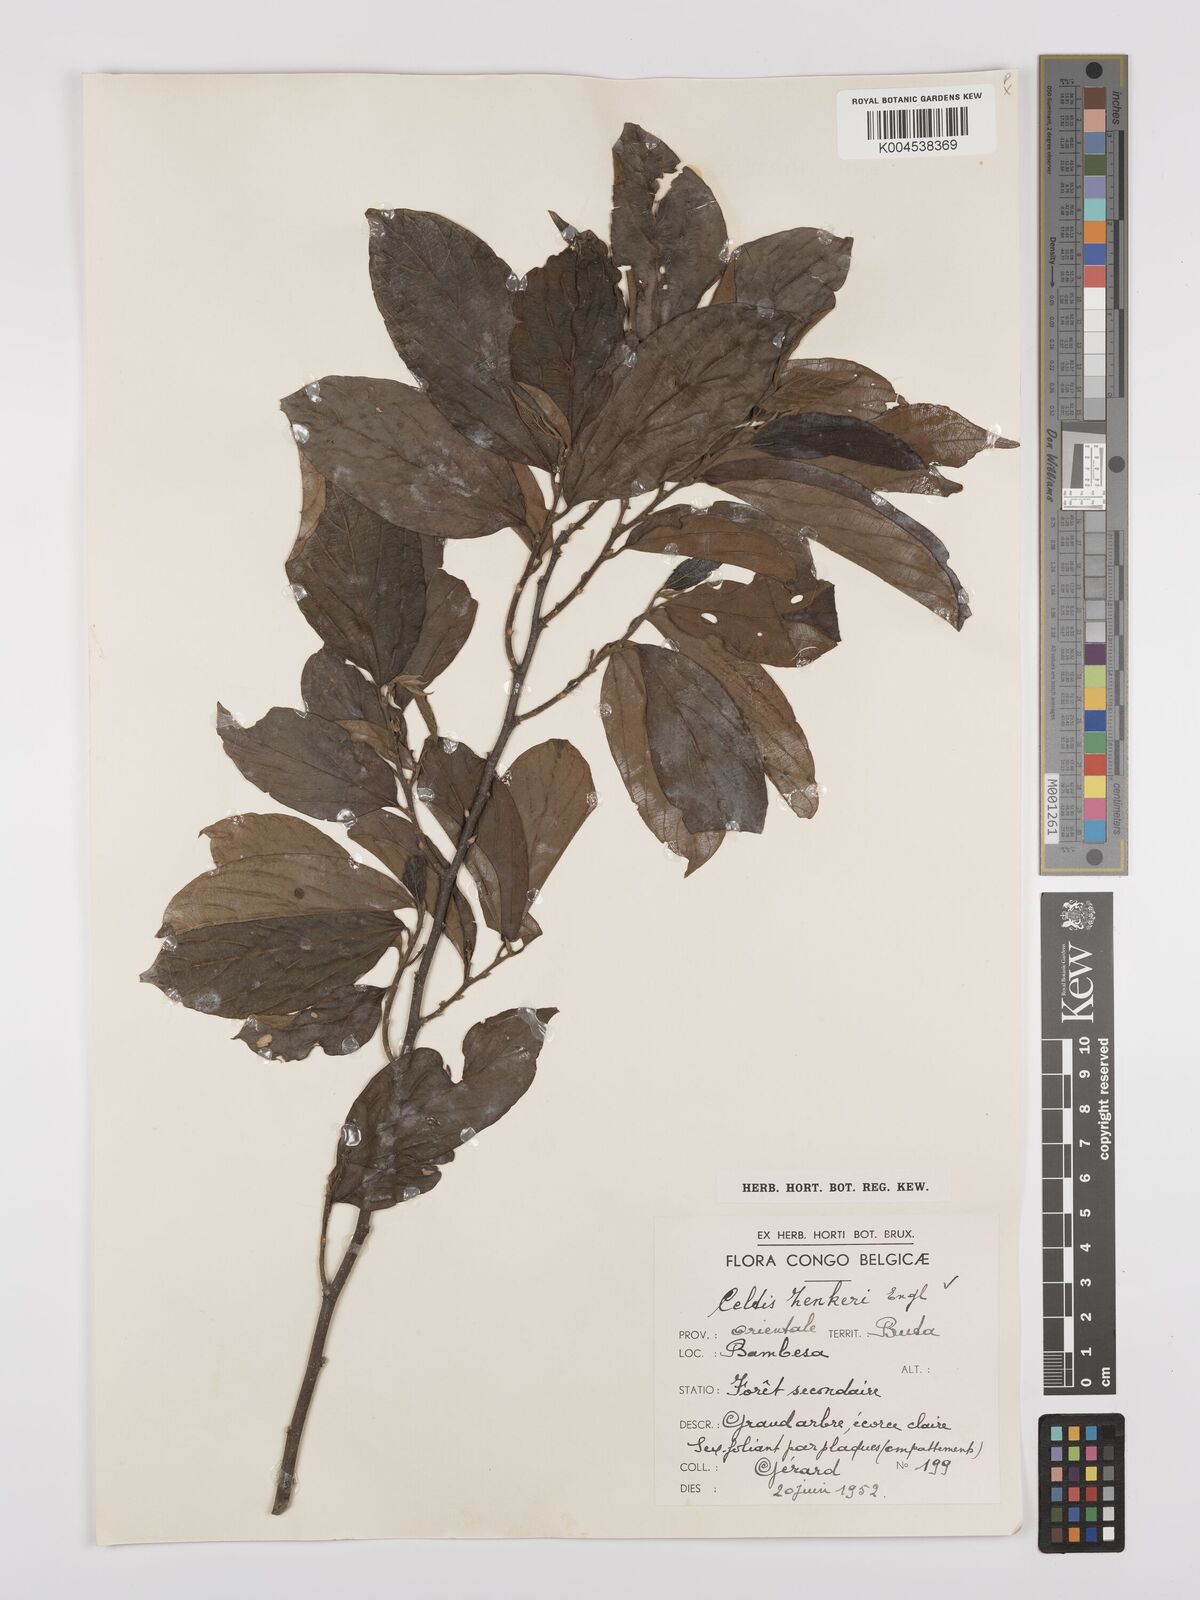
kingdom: Plantae
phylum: Tracheophyta
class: Magnoliopsida
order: Rosales
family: Cannabaceae
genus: Celtis
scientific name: Celtis zenkeri
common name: African celtis
